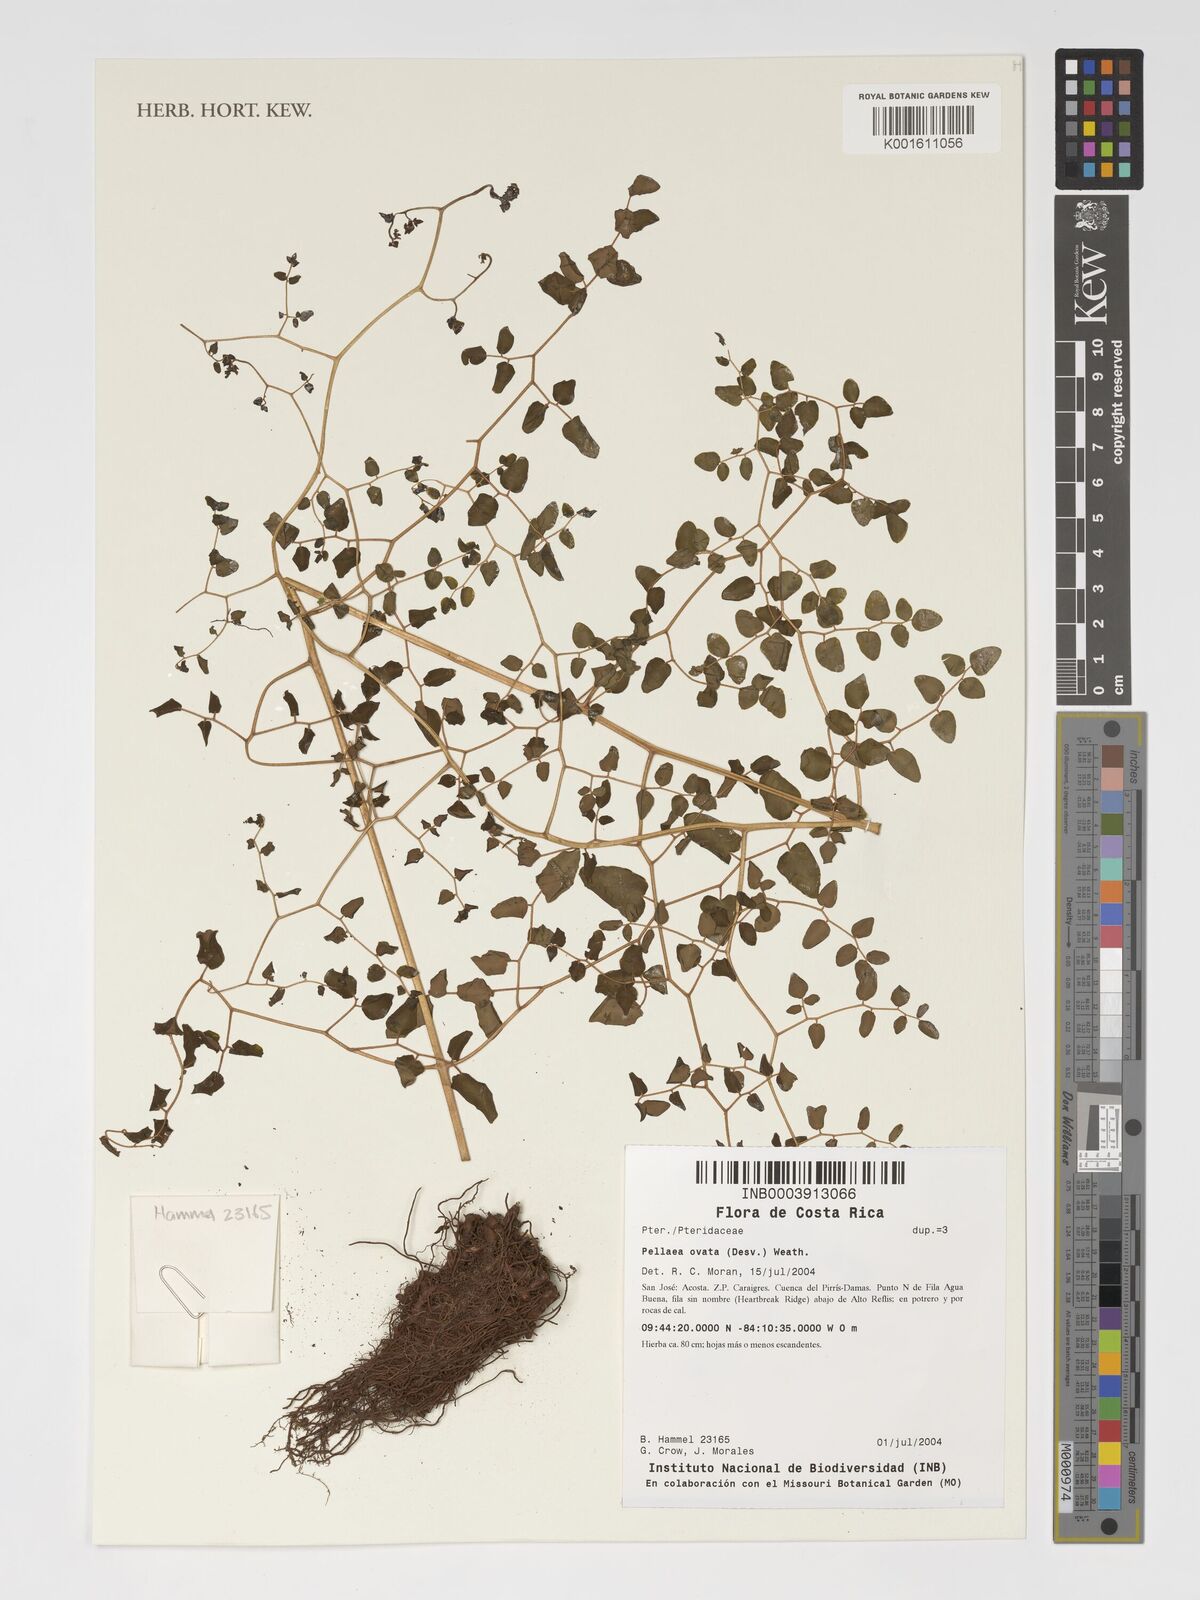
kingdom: Plantae
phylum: Tracheophyta
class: Polypodiopsida
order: Polypodiales
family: Pteridaceae
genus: Pellaea
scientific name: Pellaea ovata
